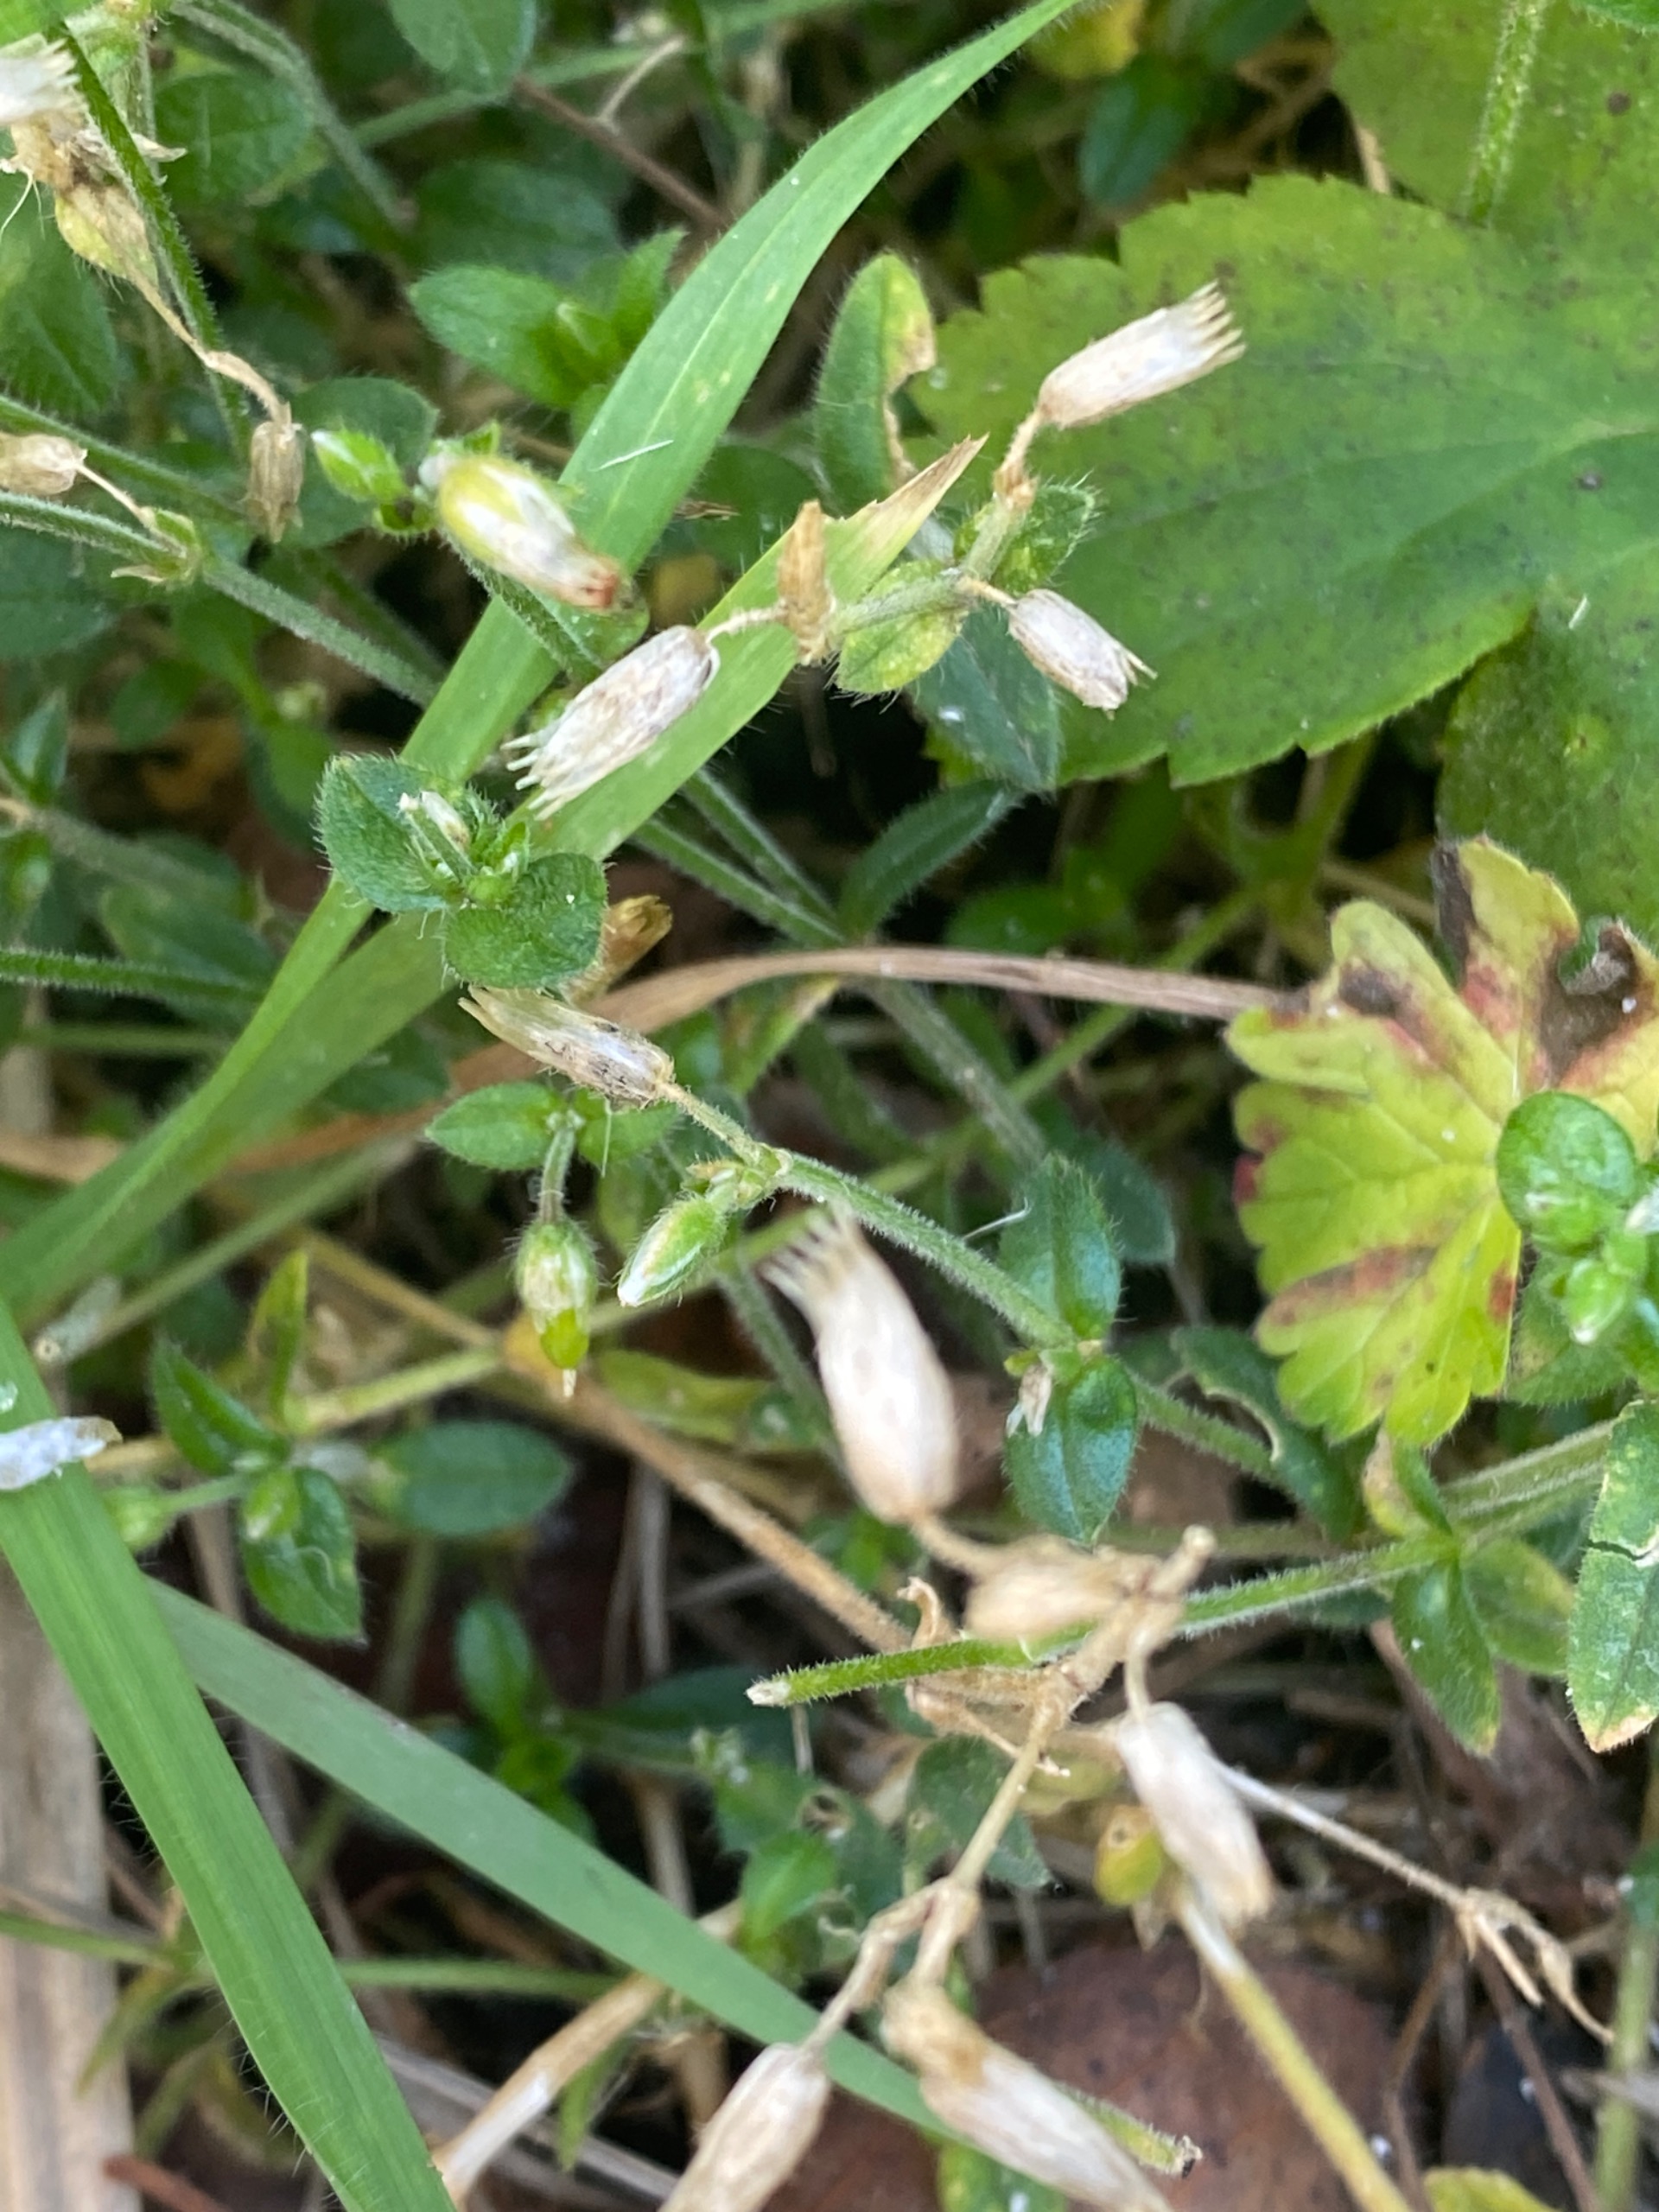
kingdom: Plantae
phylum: Tracheophyta
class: Magnoliopsida
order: Caryophyllales
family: Caryophyllaceae
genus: Cerastium
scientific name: Cerastium fontanum
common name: Almindelig hønsetarm
